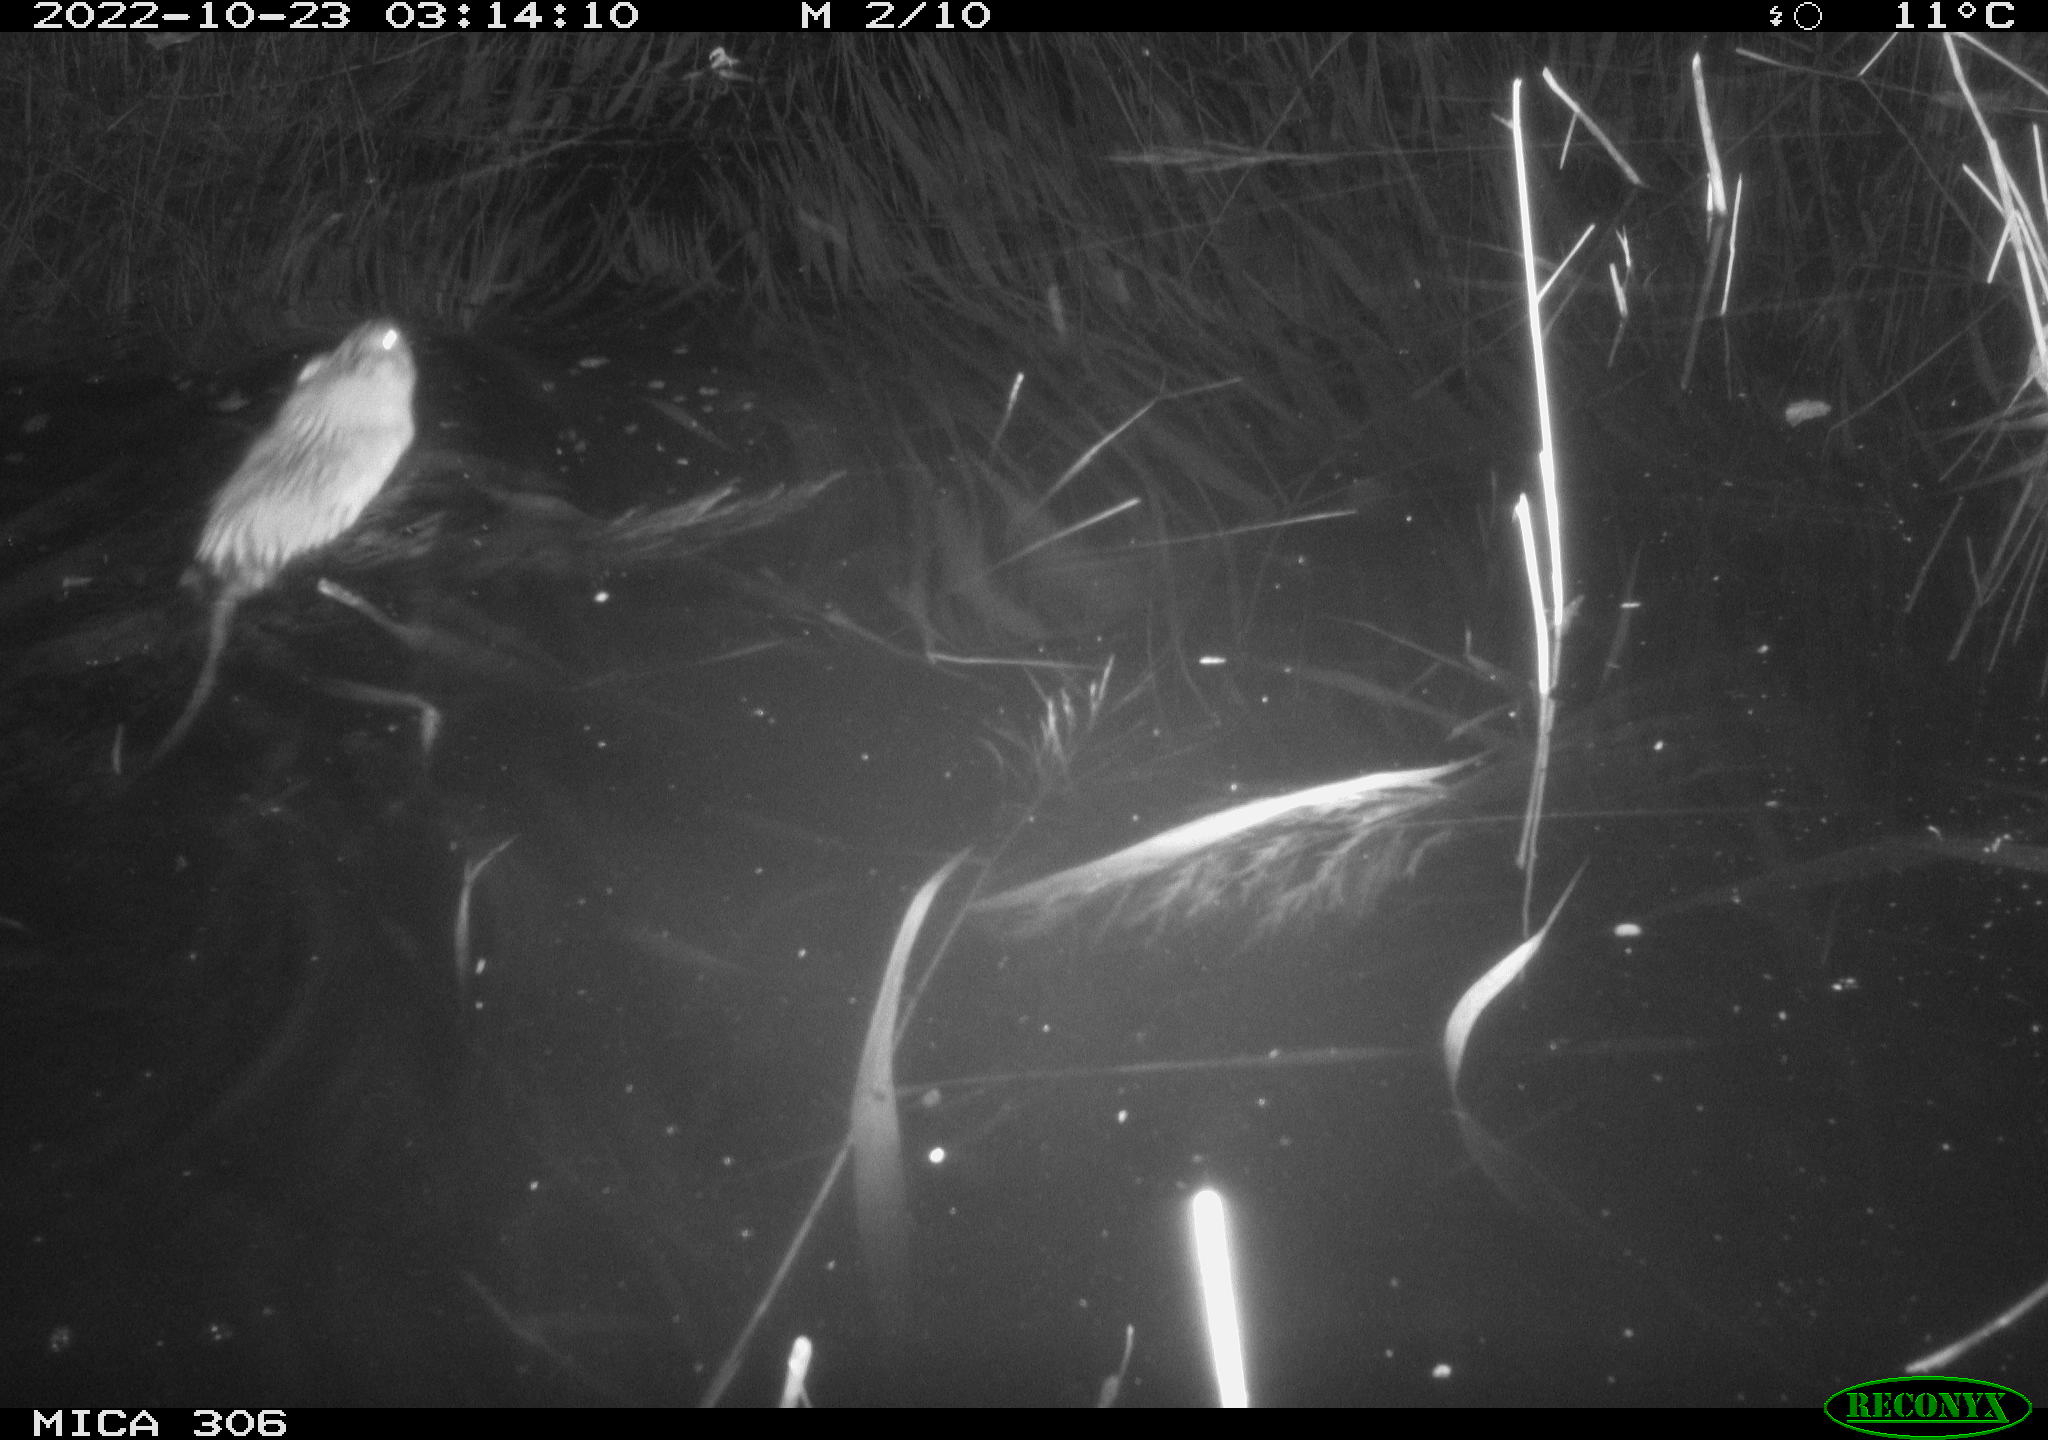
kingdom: Animalia
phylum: Chordata
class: Mammalia
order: Rodentia
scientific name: Rodentia
